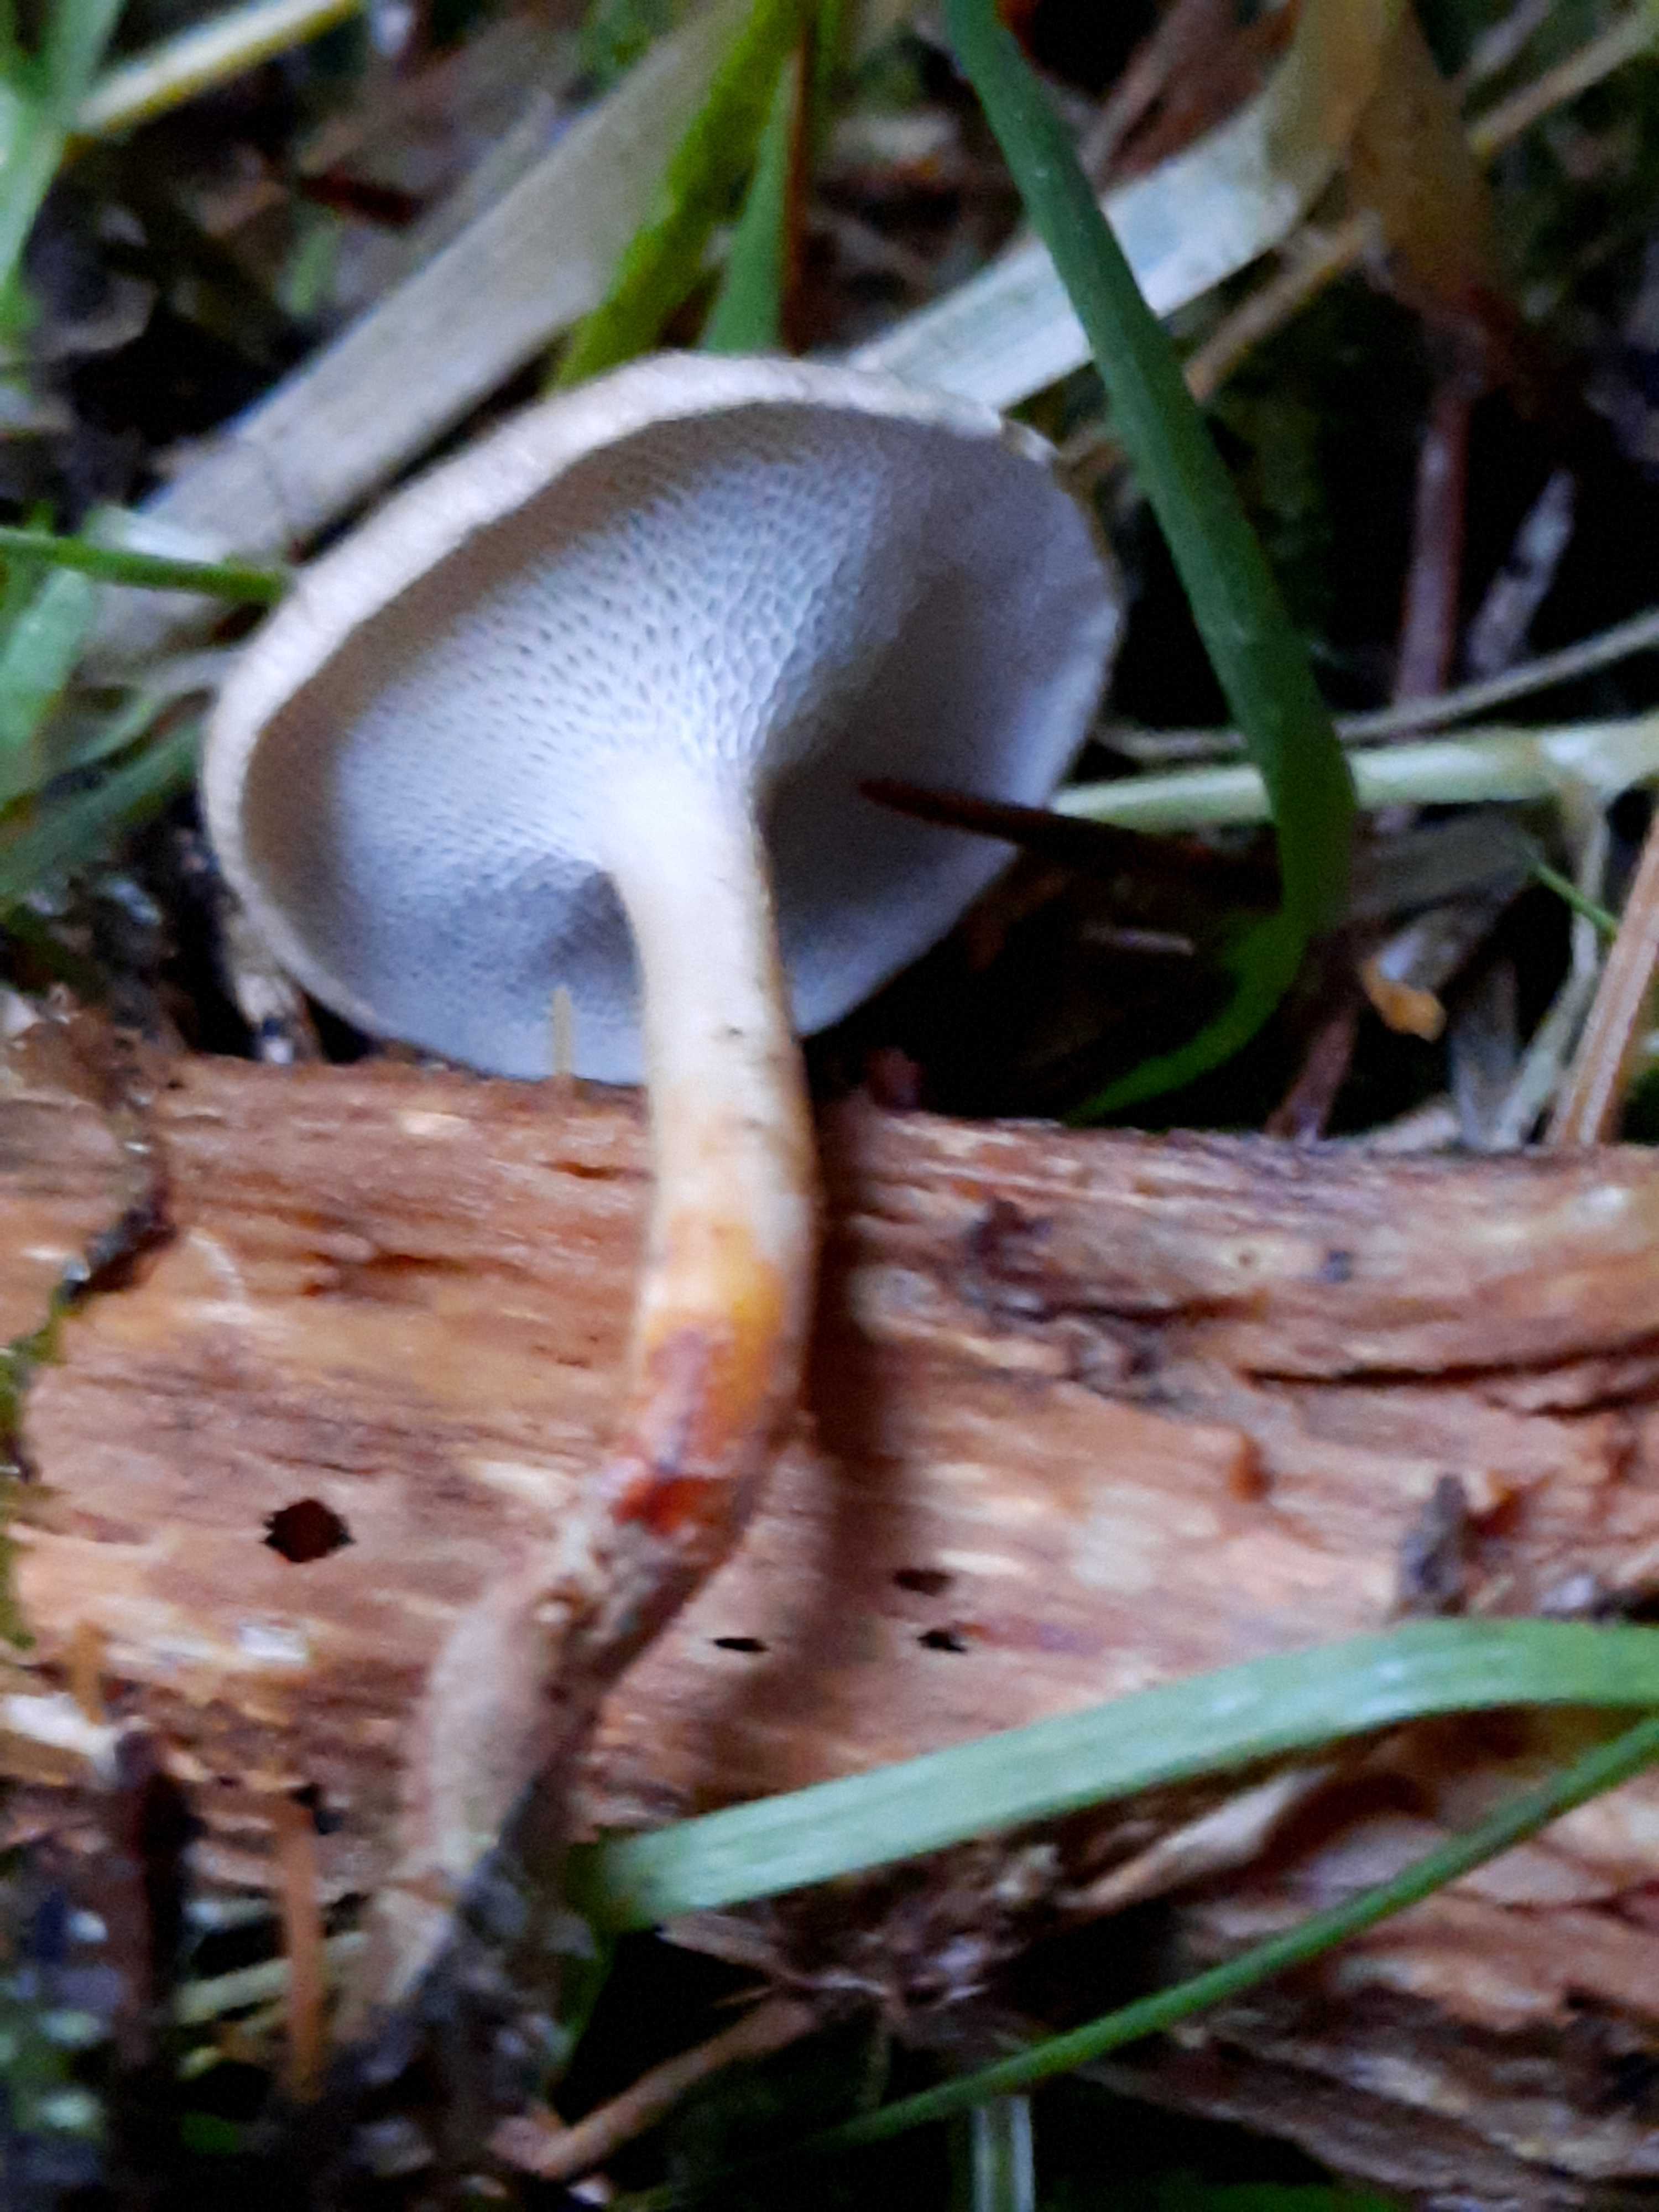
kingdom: Fungi
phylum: Basidiomycota
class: Agaricomycetes
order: Polyporales
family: Polyporaceae
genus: Lentinus
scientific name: Lentinus brumalis
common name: vinter-stilkporesvamp
